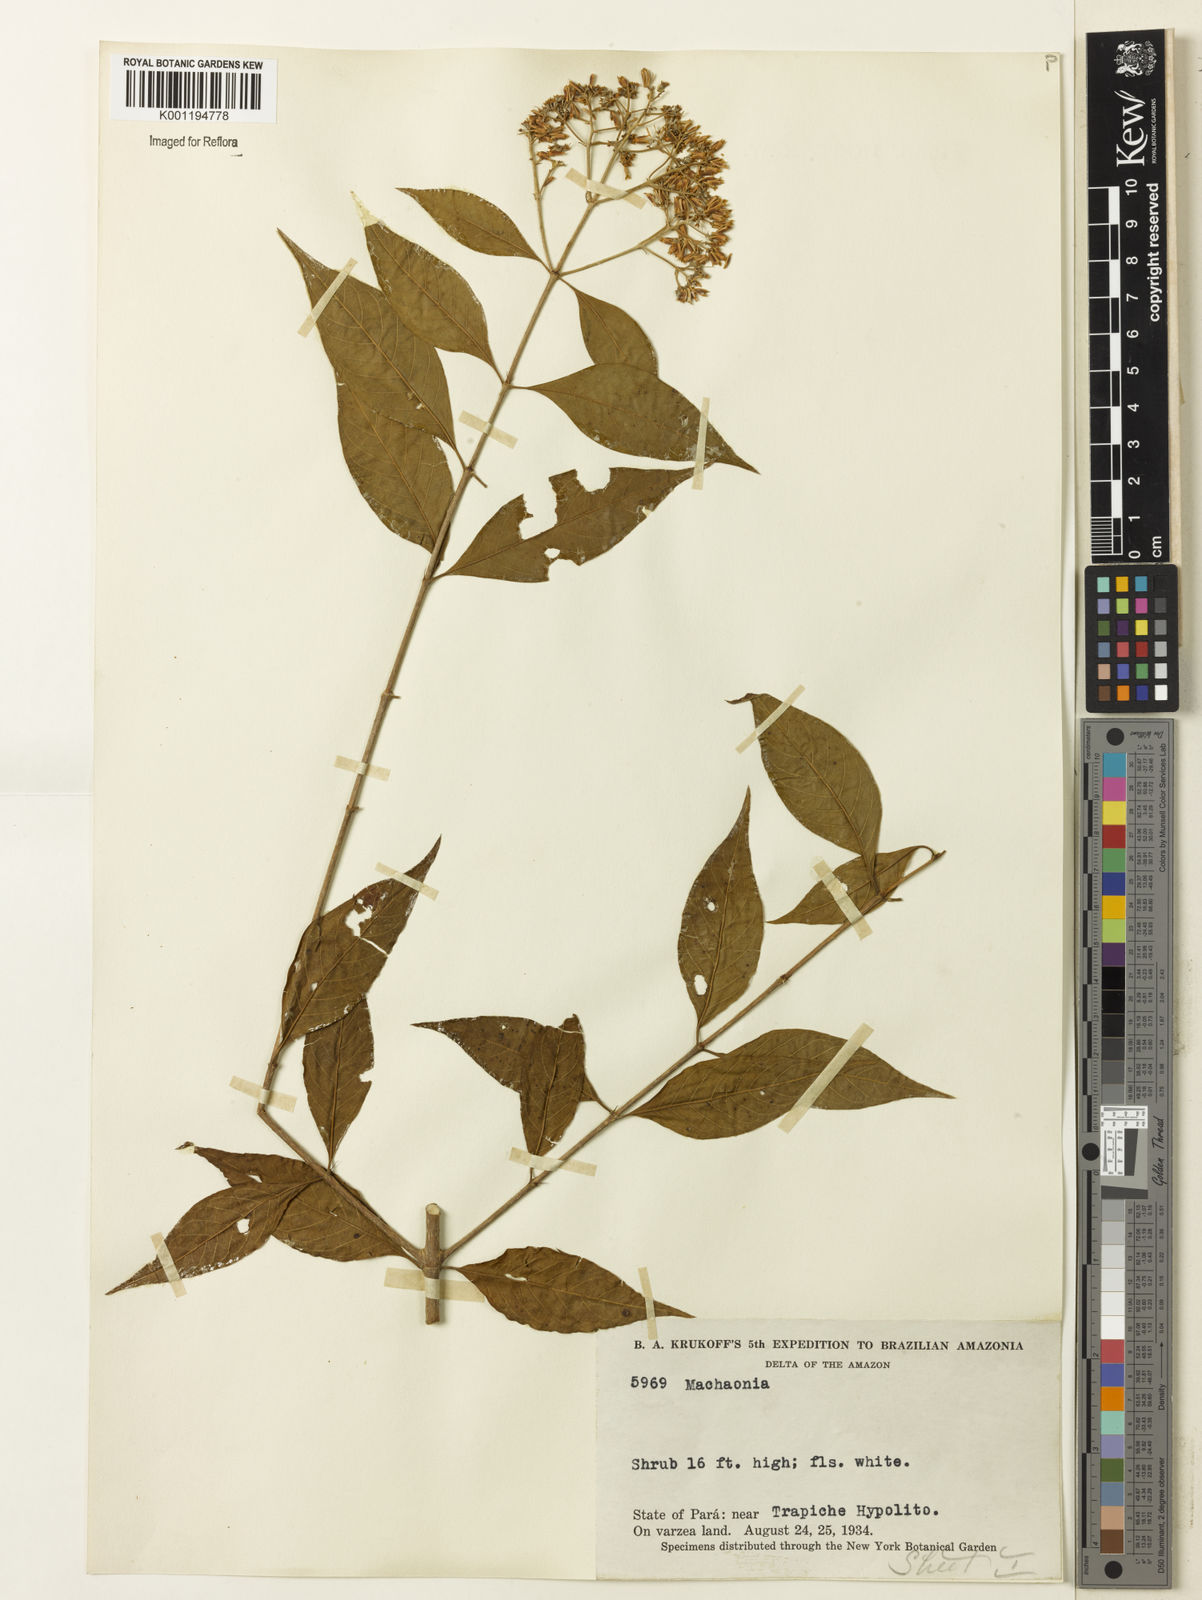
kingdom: Plantae
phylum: Tracheophyta
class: Magnoliopsida
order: Gentianales
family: Rubiaceae
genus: Machaonia
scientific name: Machaonia brasiliensis
